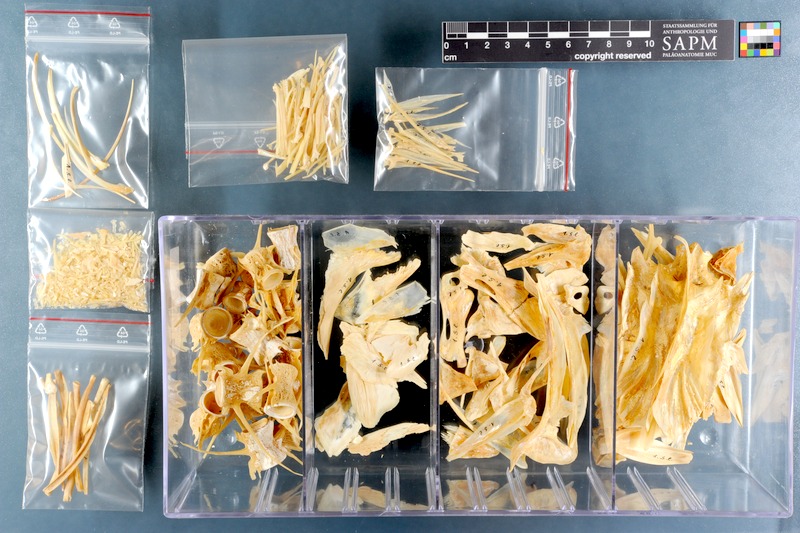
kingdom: Animalia
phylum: Chordata
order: Perciformes
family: Carangidae
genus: Seriola
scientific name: Seriola lalandi
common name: Yellowtail kingfish
